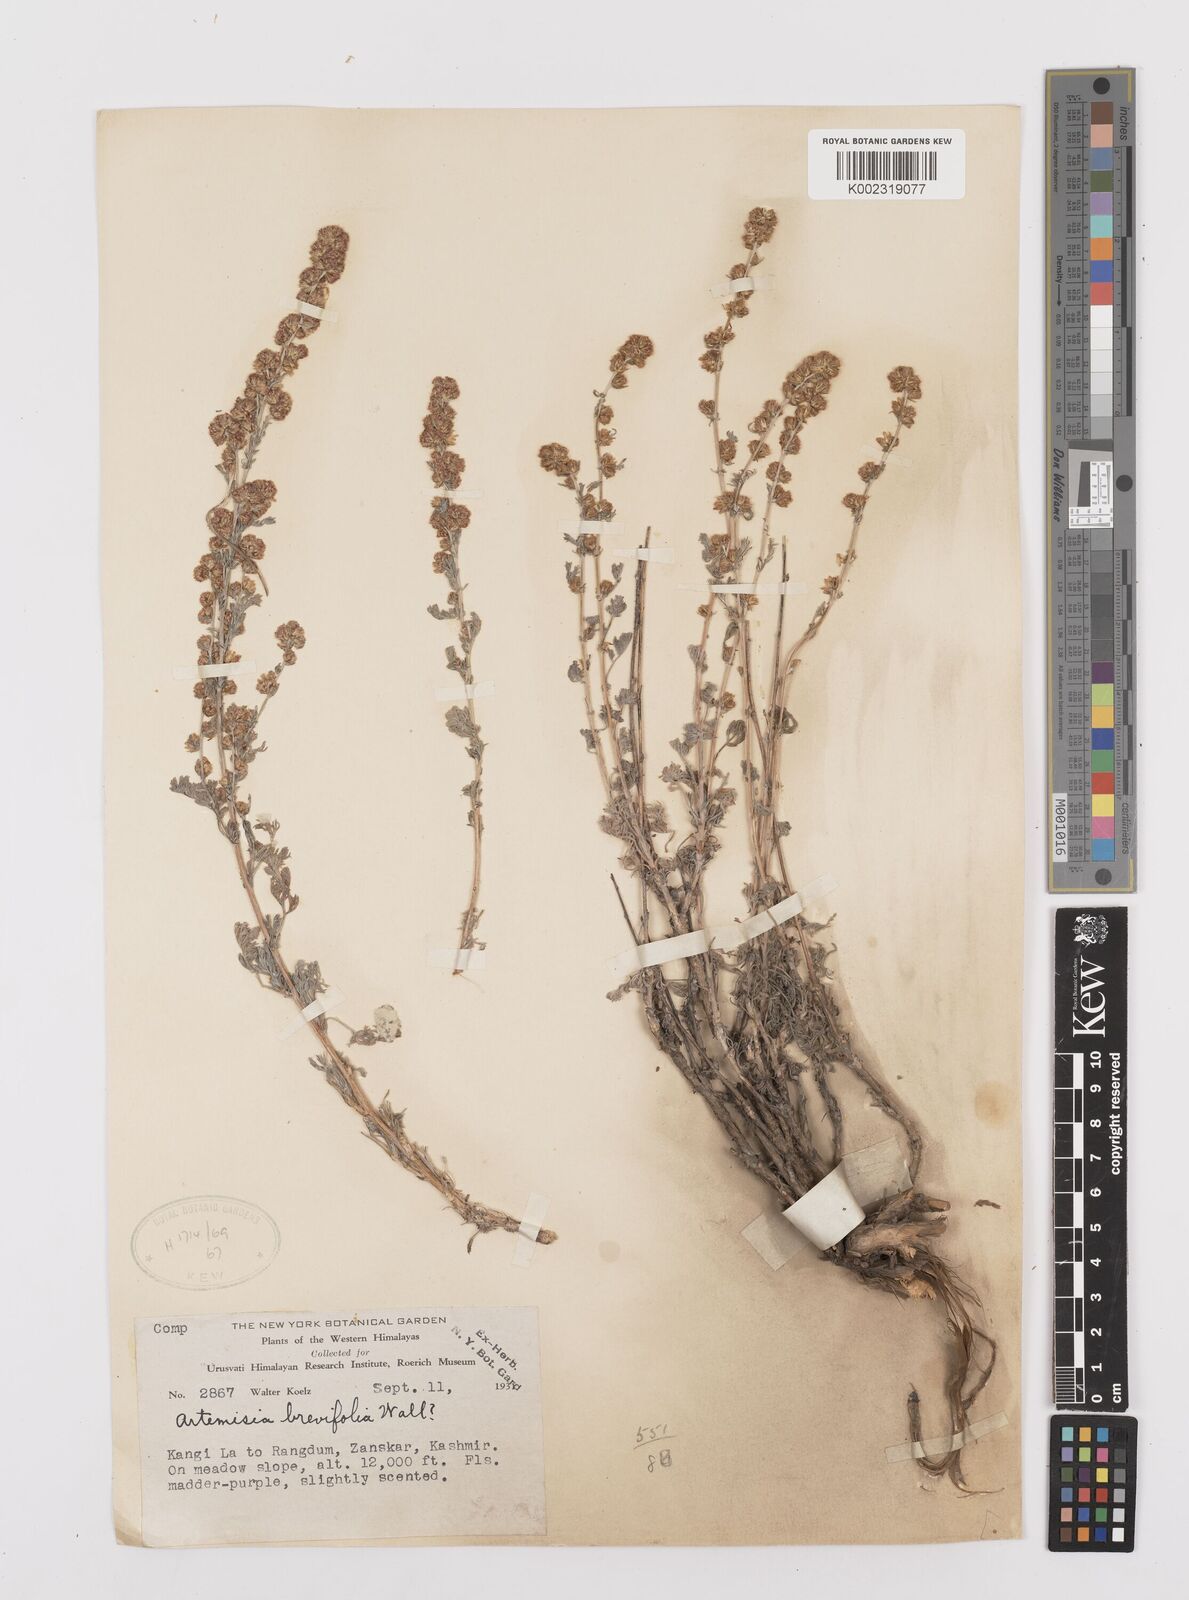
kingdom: Plantae
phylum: Tracheophyta
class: Magnoliopsida
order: Asterales
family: Asteraceae
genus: Artemisia
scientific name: Artemisia compacta
